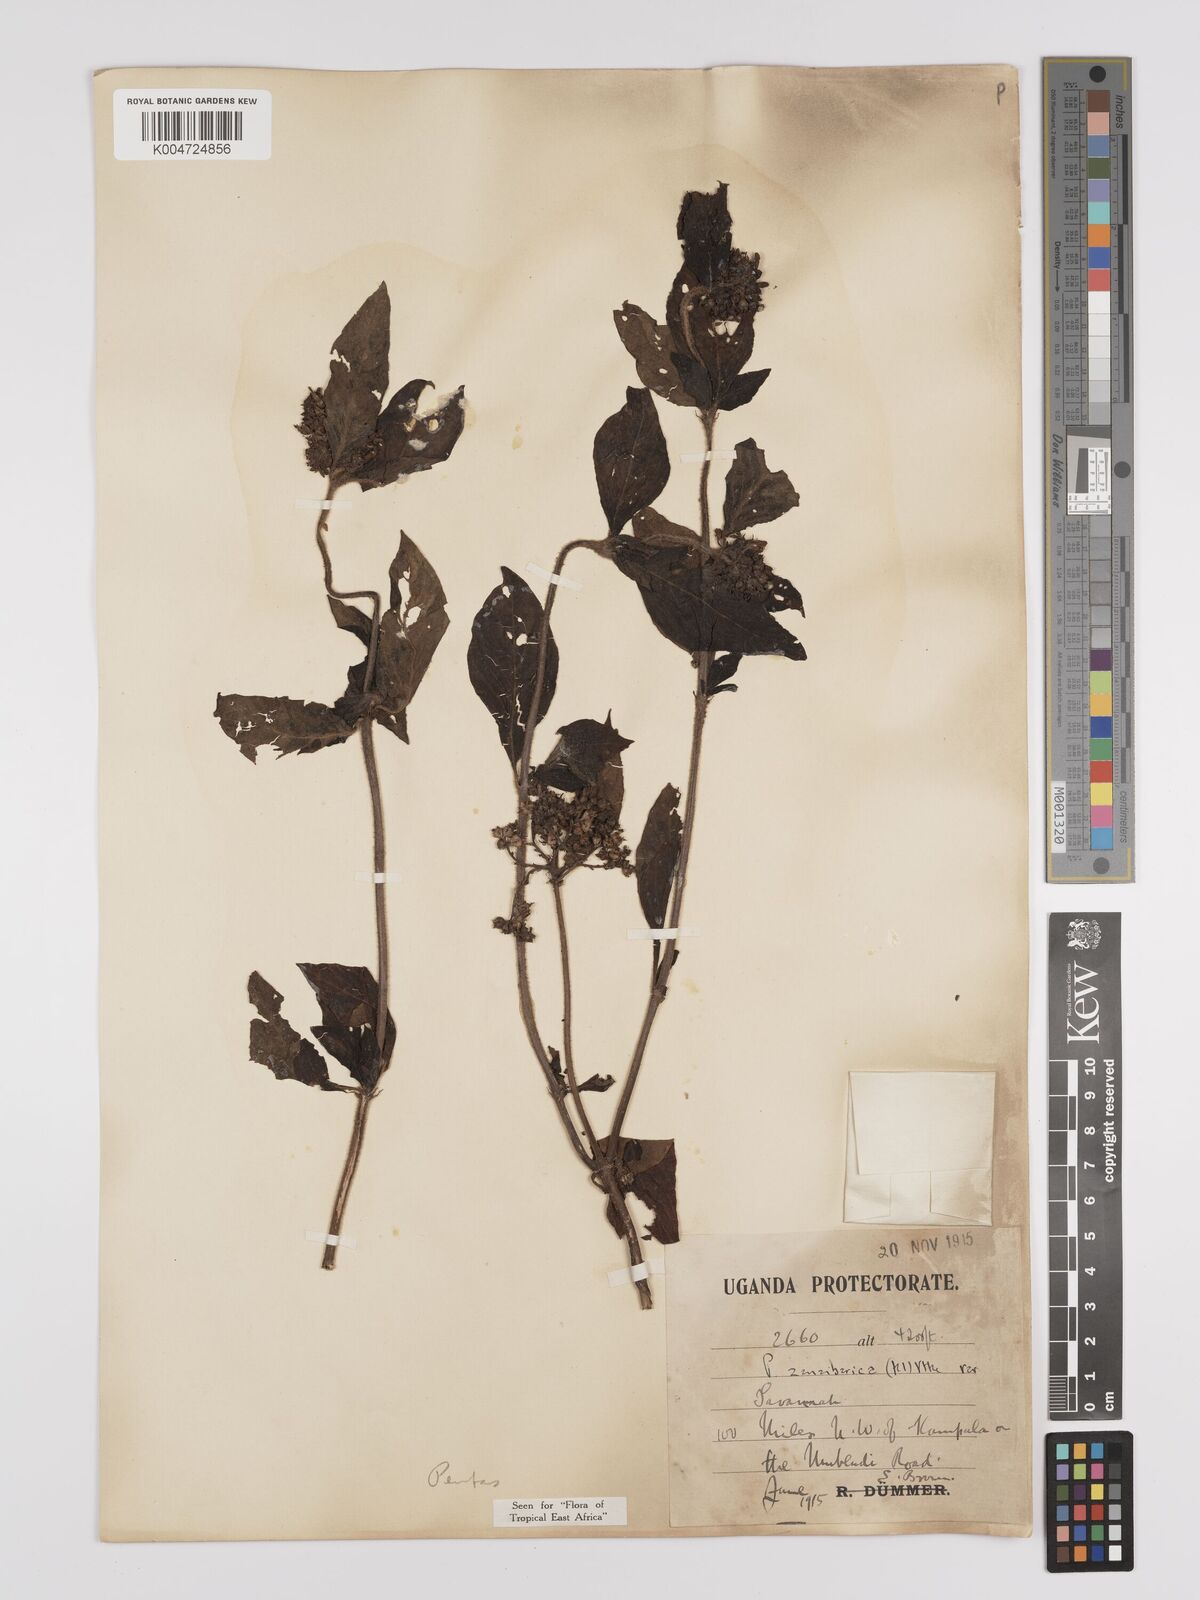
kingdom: Plantae
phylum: Tracheophyta
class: Magnoliopsida
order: Gentianales
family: Rubiaceae
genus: Pentas
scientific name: Pentas zanzibarica
